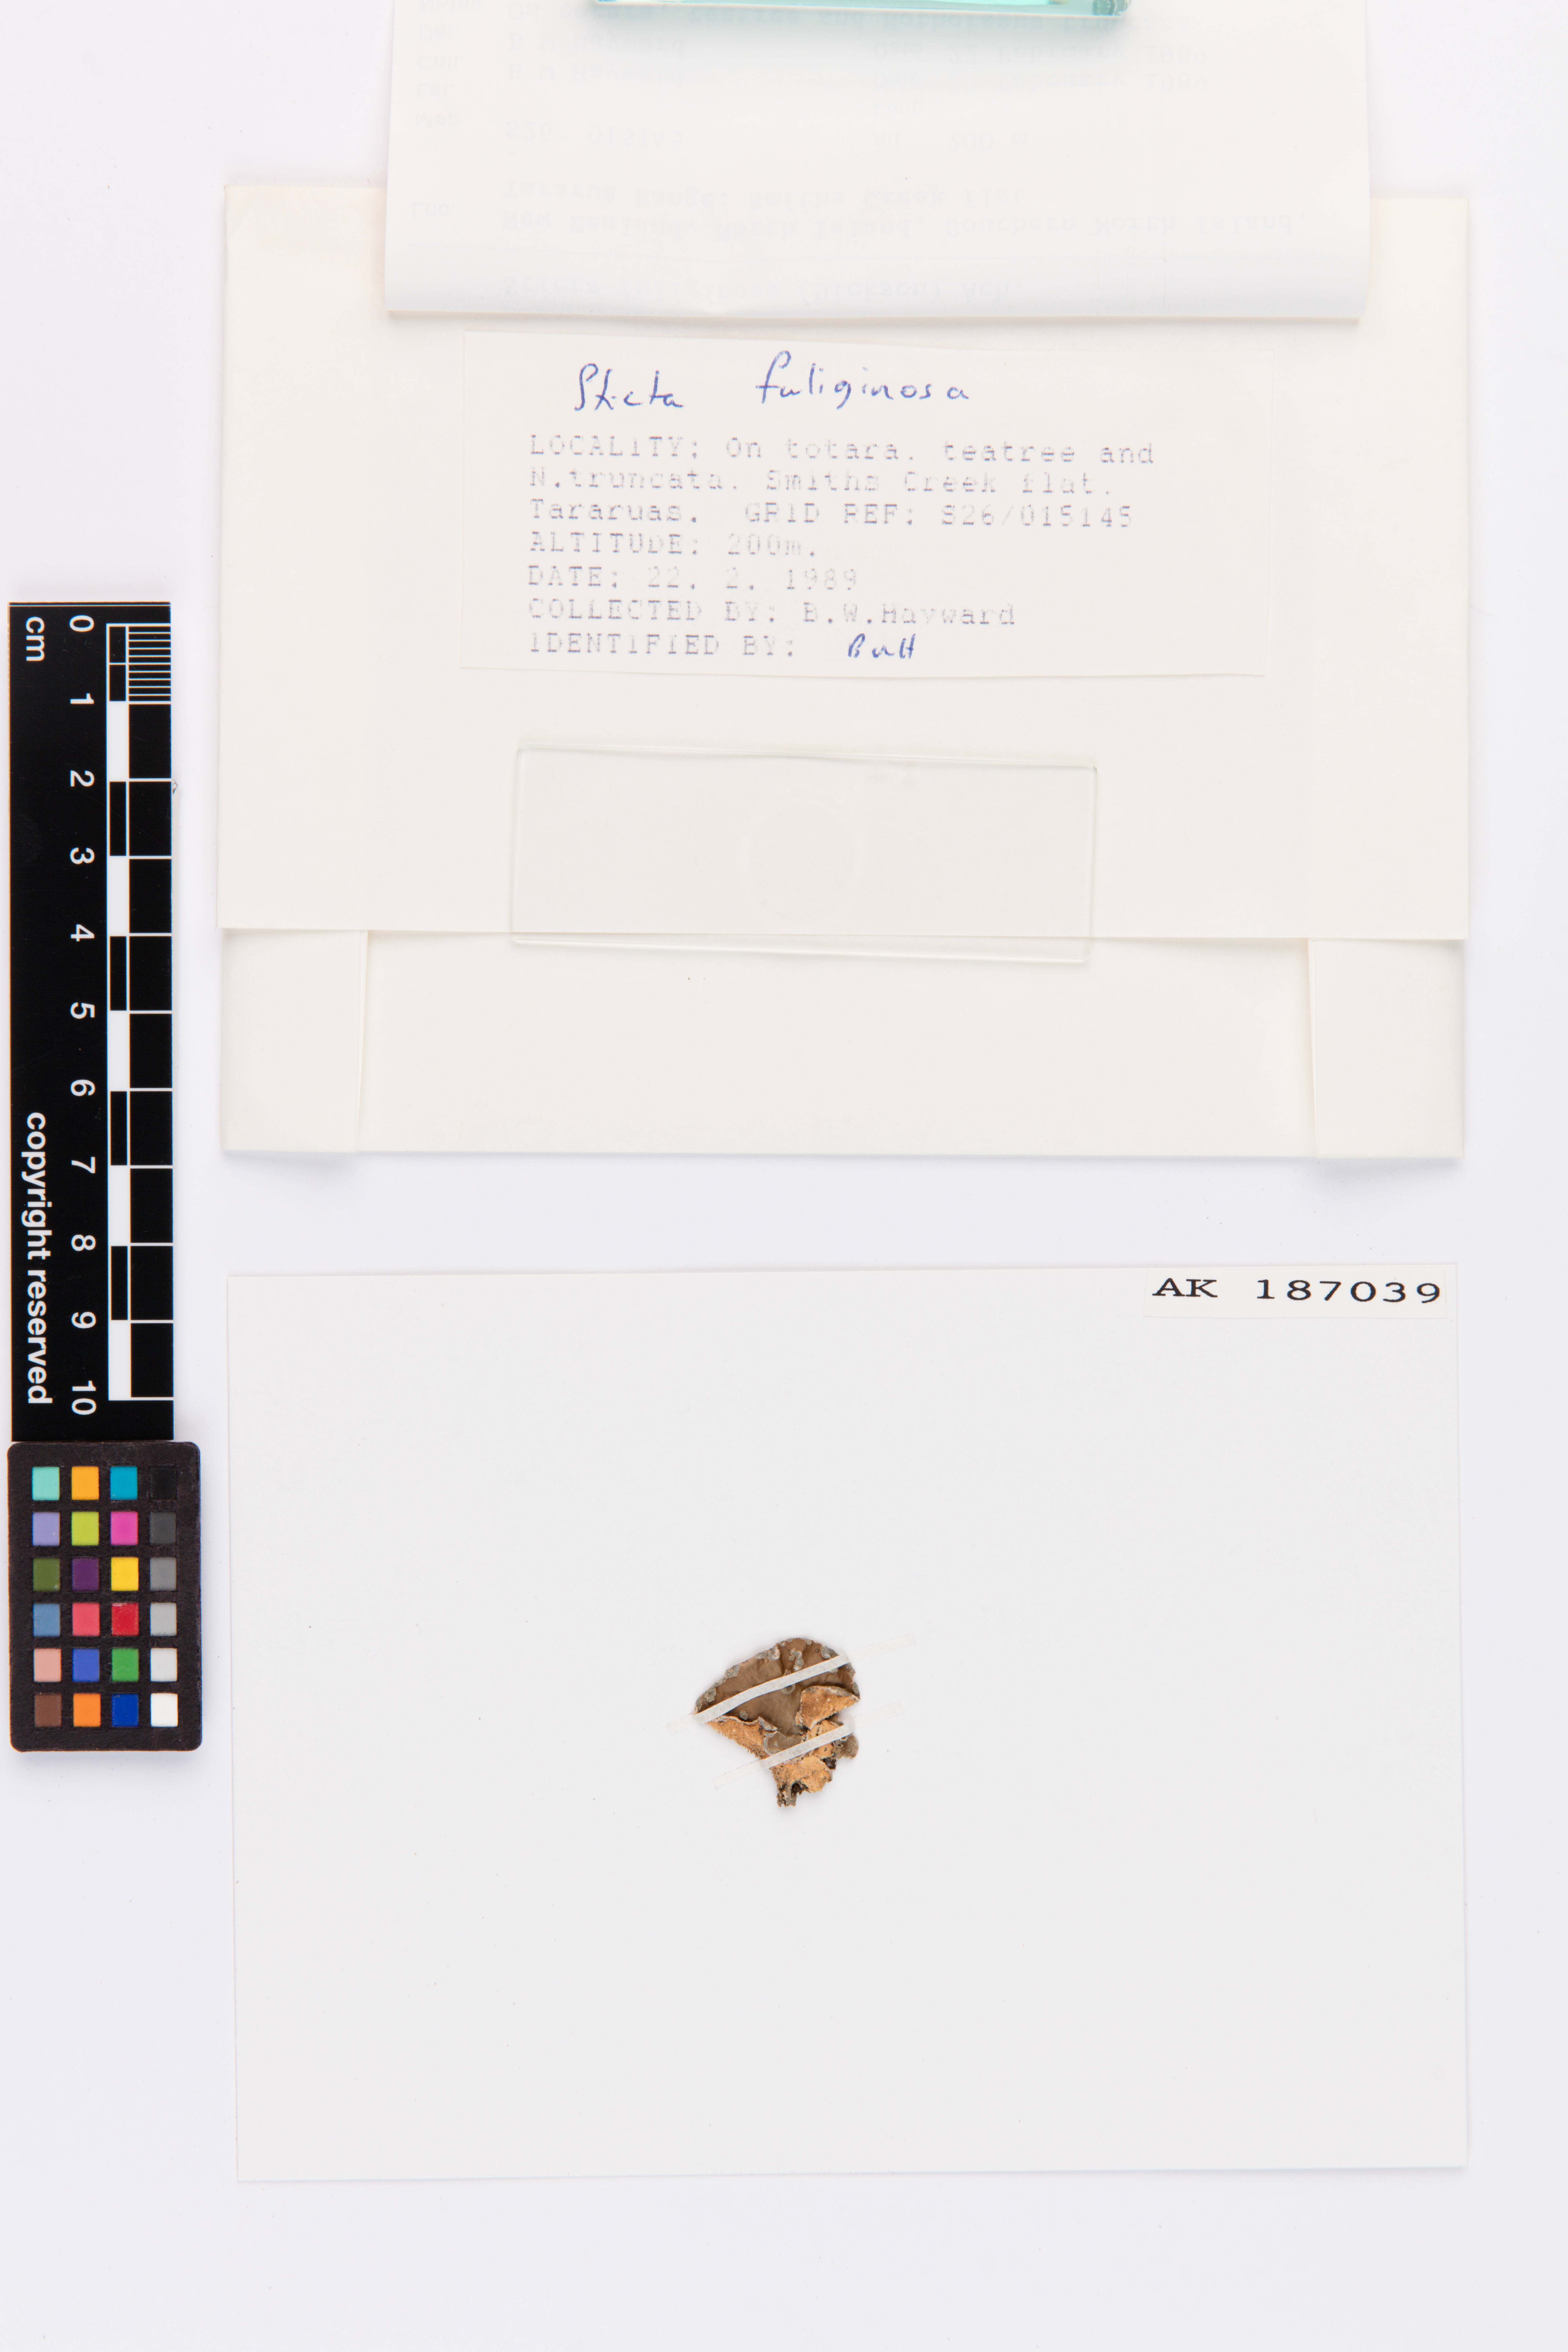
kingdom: Fungi
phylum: Ascomycota
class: Lecanoromycetes
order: Peltigerales
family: Lobariaceae
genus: Sticta
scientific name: Sticta fuliginosa
